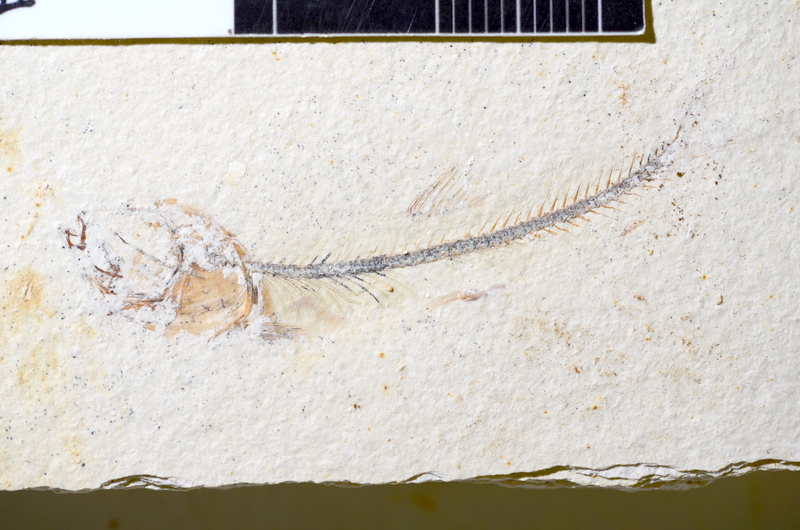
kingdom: Animalia
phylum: Chordata
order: Salmoniformes
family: Orthogonikleithridae
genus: Orthogonikleithrus
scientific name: Orthogonikleithrus hoelli
